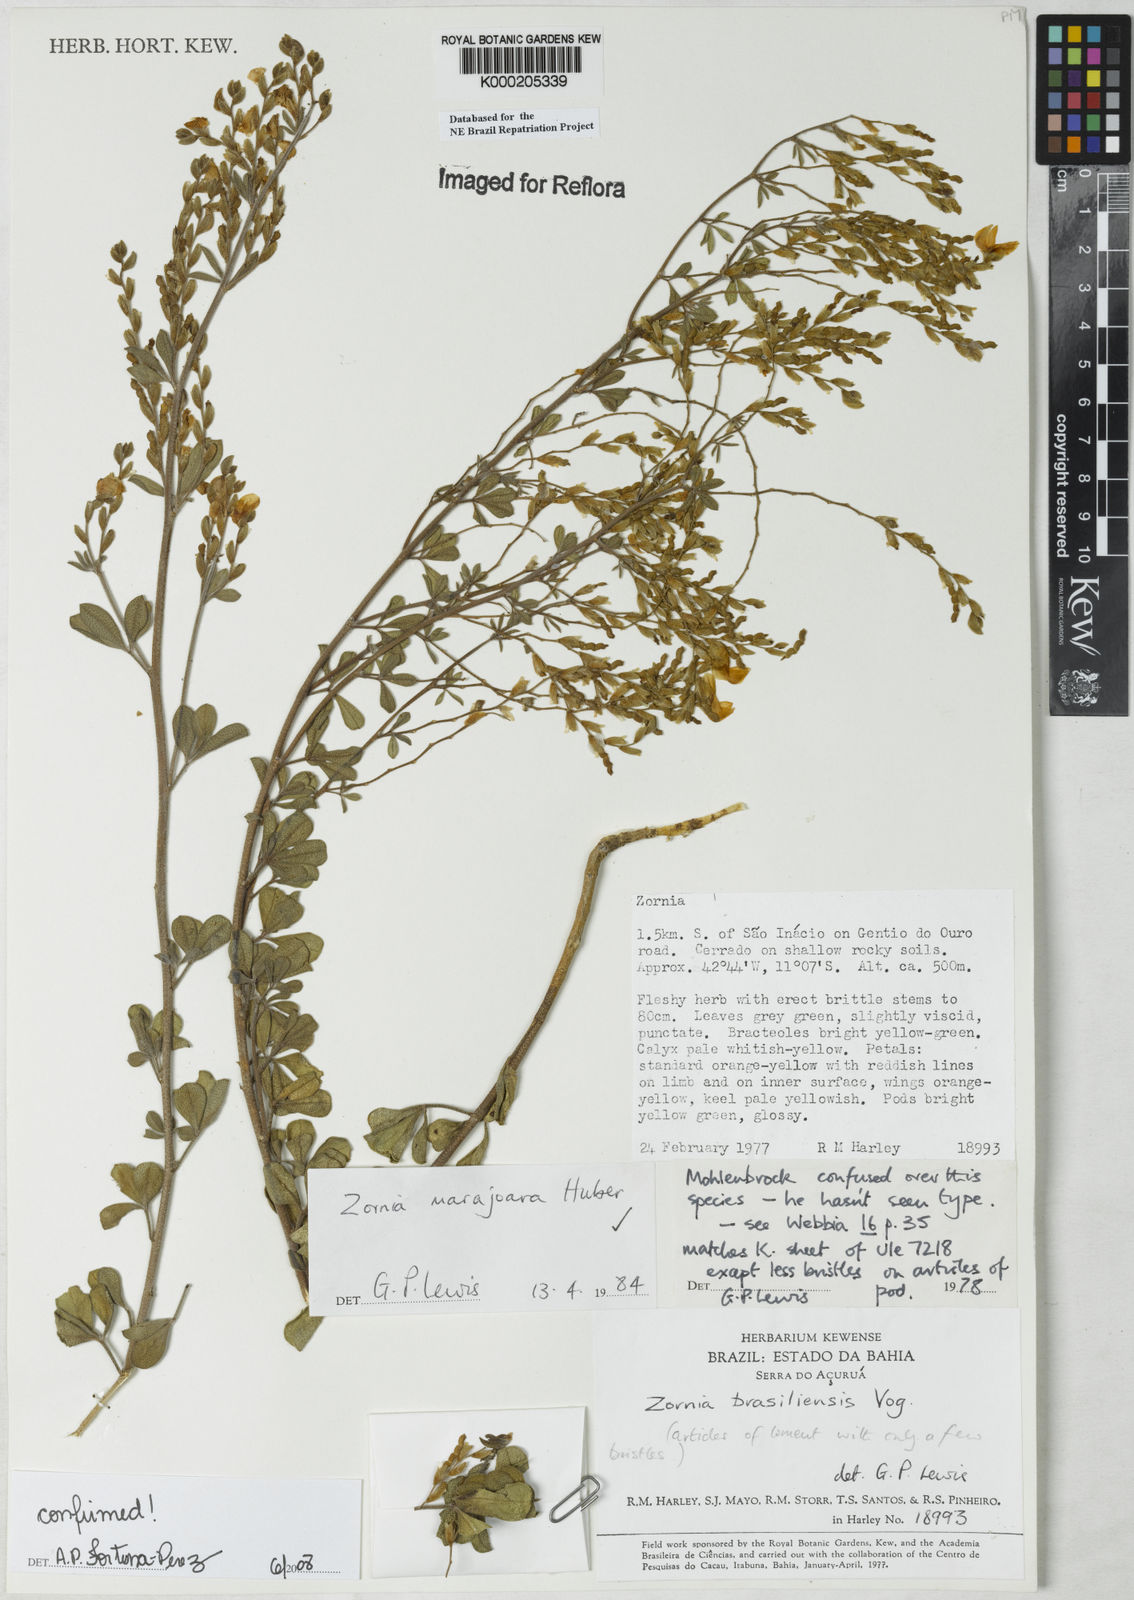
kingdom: Plantae
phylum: Tracheophyta
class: Magnoliopsida
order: Fabales
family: Fabaceae
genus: Zornia
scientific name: Zornia guanipensis
